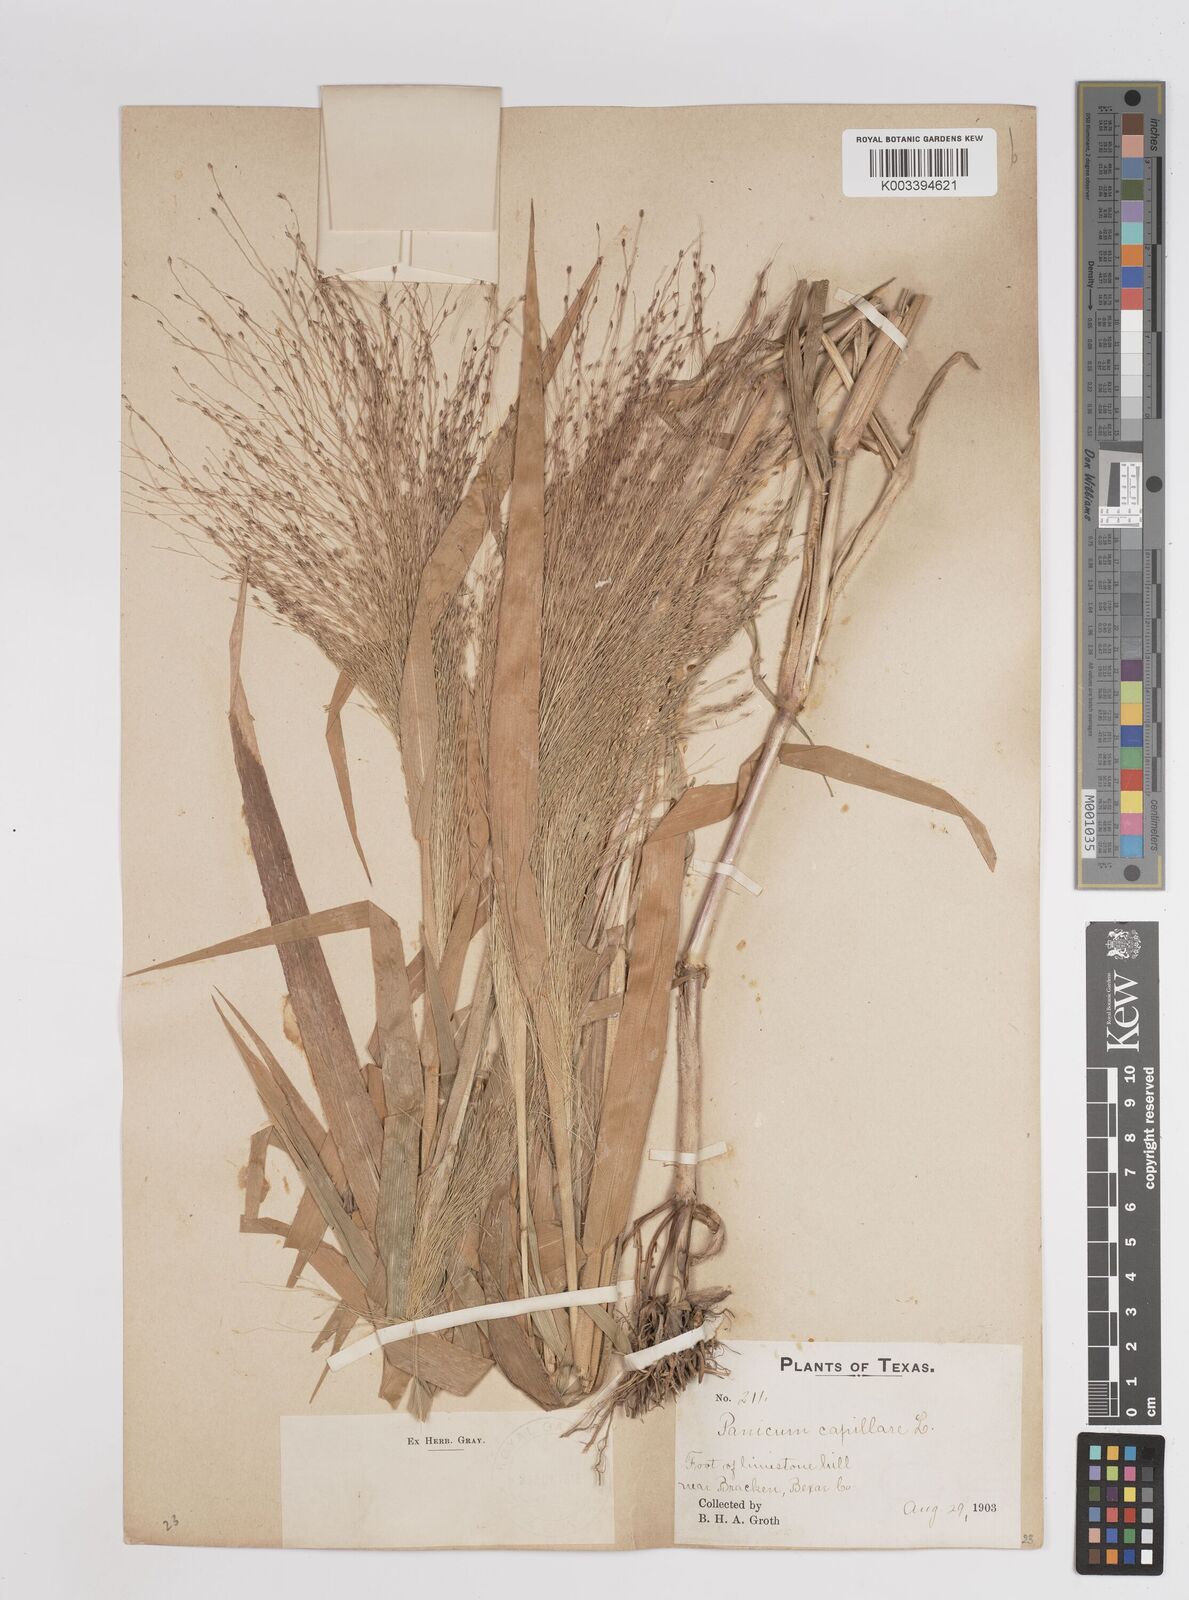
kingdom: Plantae
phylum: Tracheophyta
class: Liliopsida
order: Poales
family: Poaceae
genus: Panicum
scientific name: Panicum capillare
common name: Witch-grass
